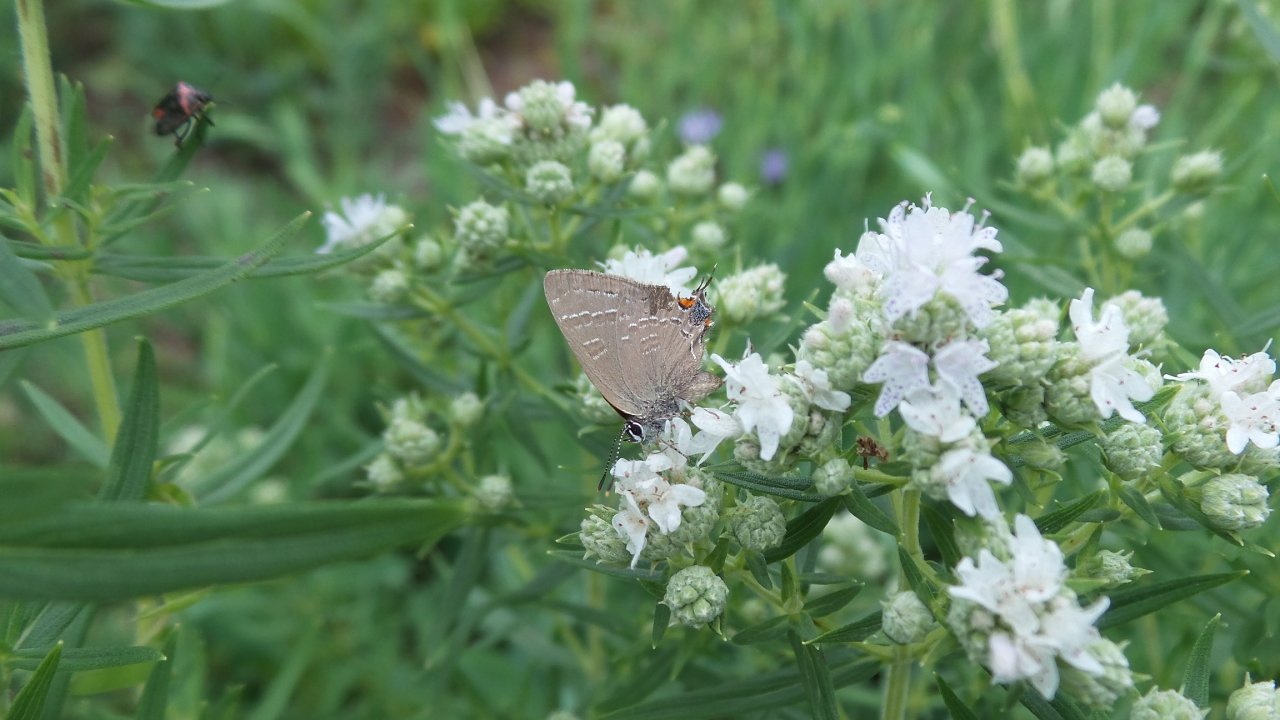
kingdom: Animalia
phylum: Arthropoda
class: Insecta
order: Lepidoptera
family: Lycaenidae
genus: Satyrium
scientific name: Satyrium
